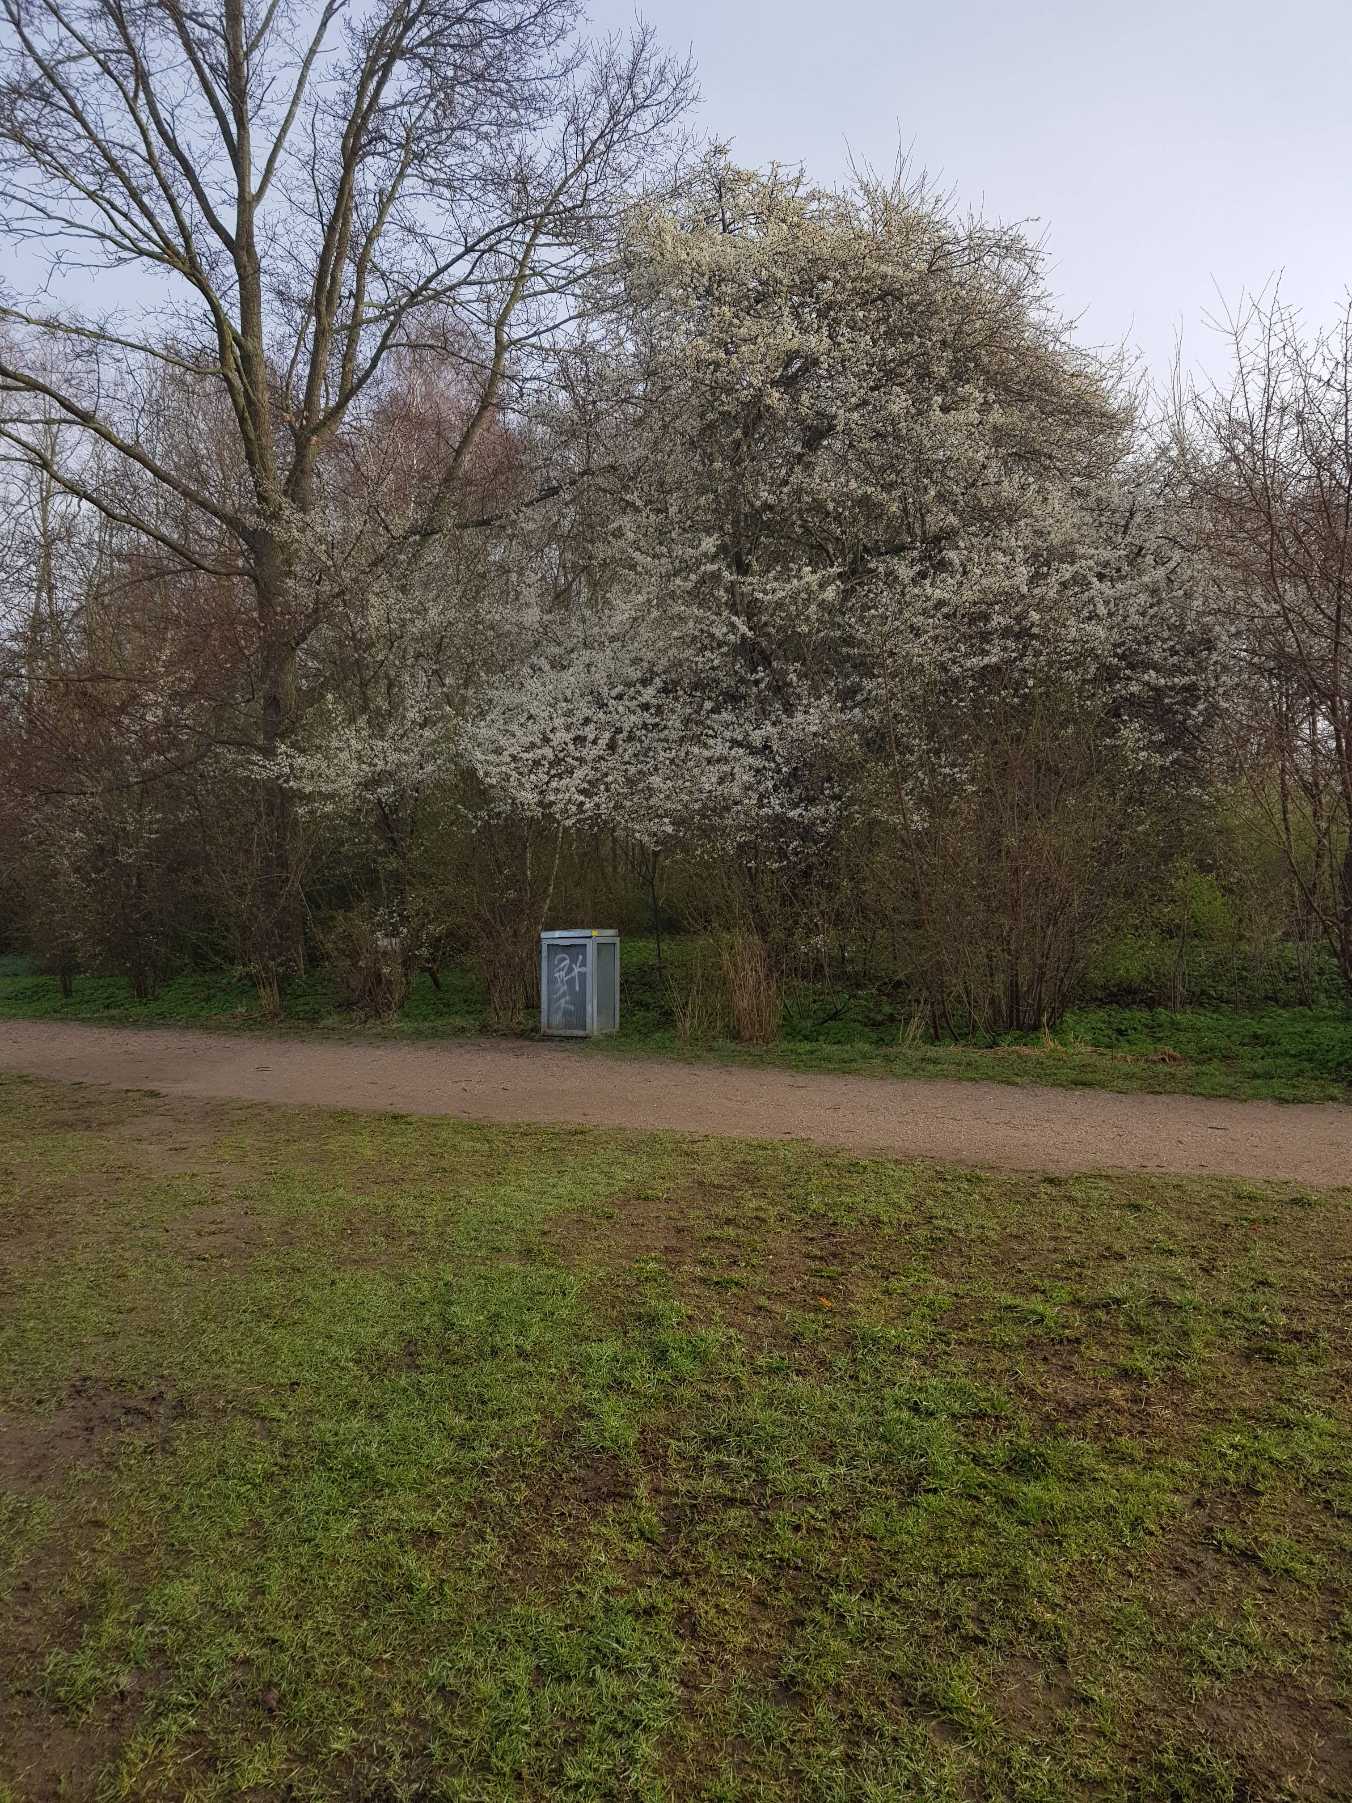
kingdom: Plantae
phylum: Tracheophyta
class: Magnoliopsida
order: Rosales
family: Rosaceae
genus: Prunus
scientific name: Prunus cerasifera
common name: Mirabel
